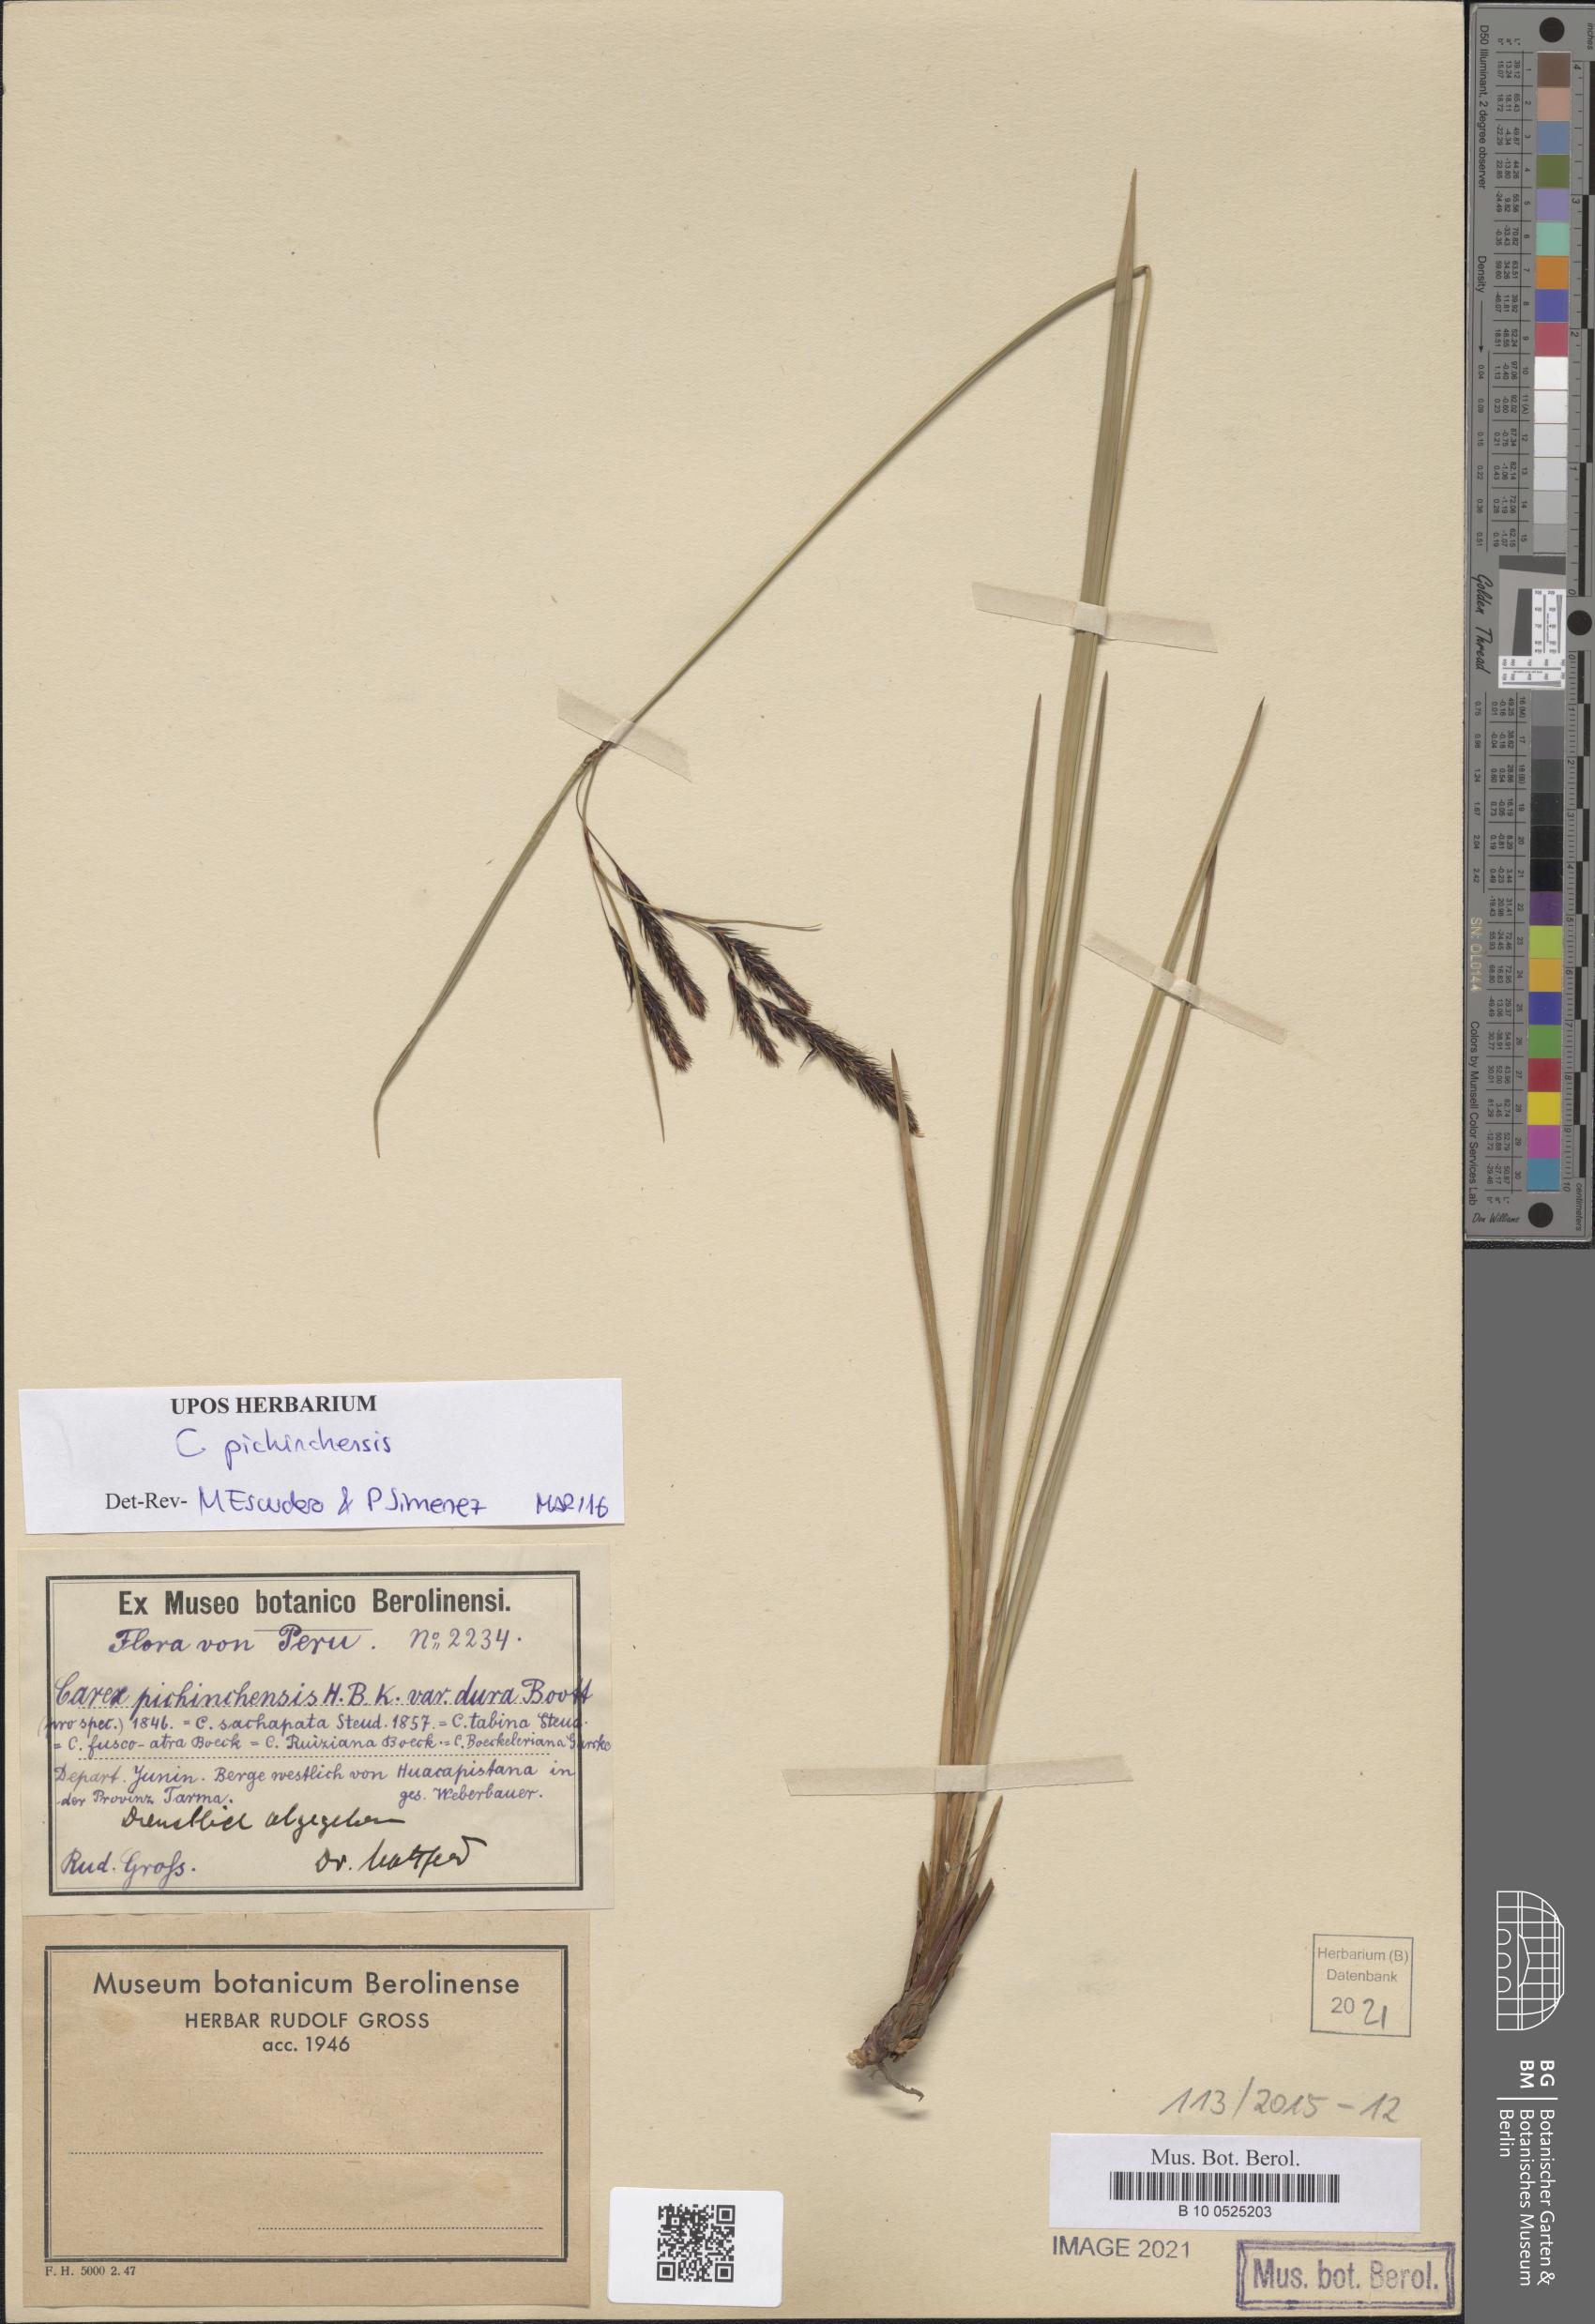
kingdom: Plantae
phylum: Tracheophyta
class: Liliopsida
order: Poales
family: Cyperaceae
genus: Carex
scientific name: Carex pichinchensis
